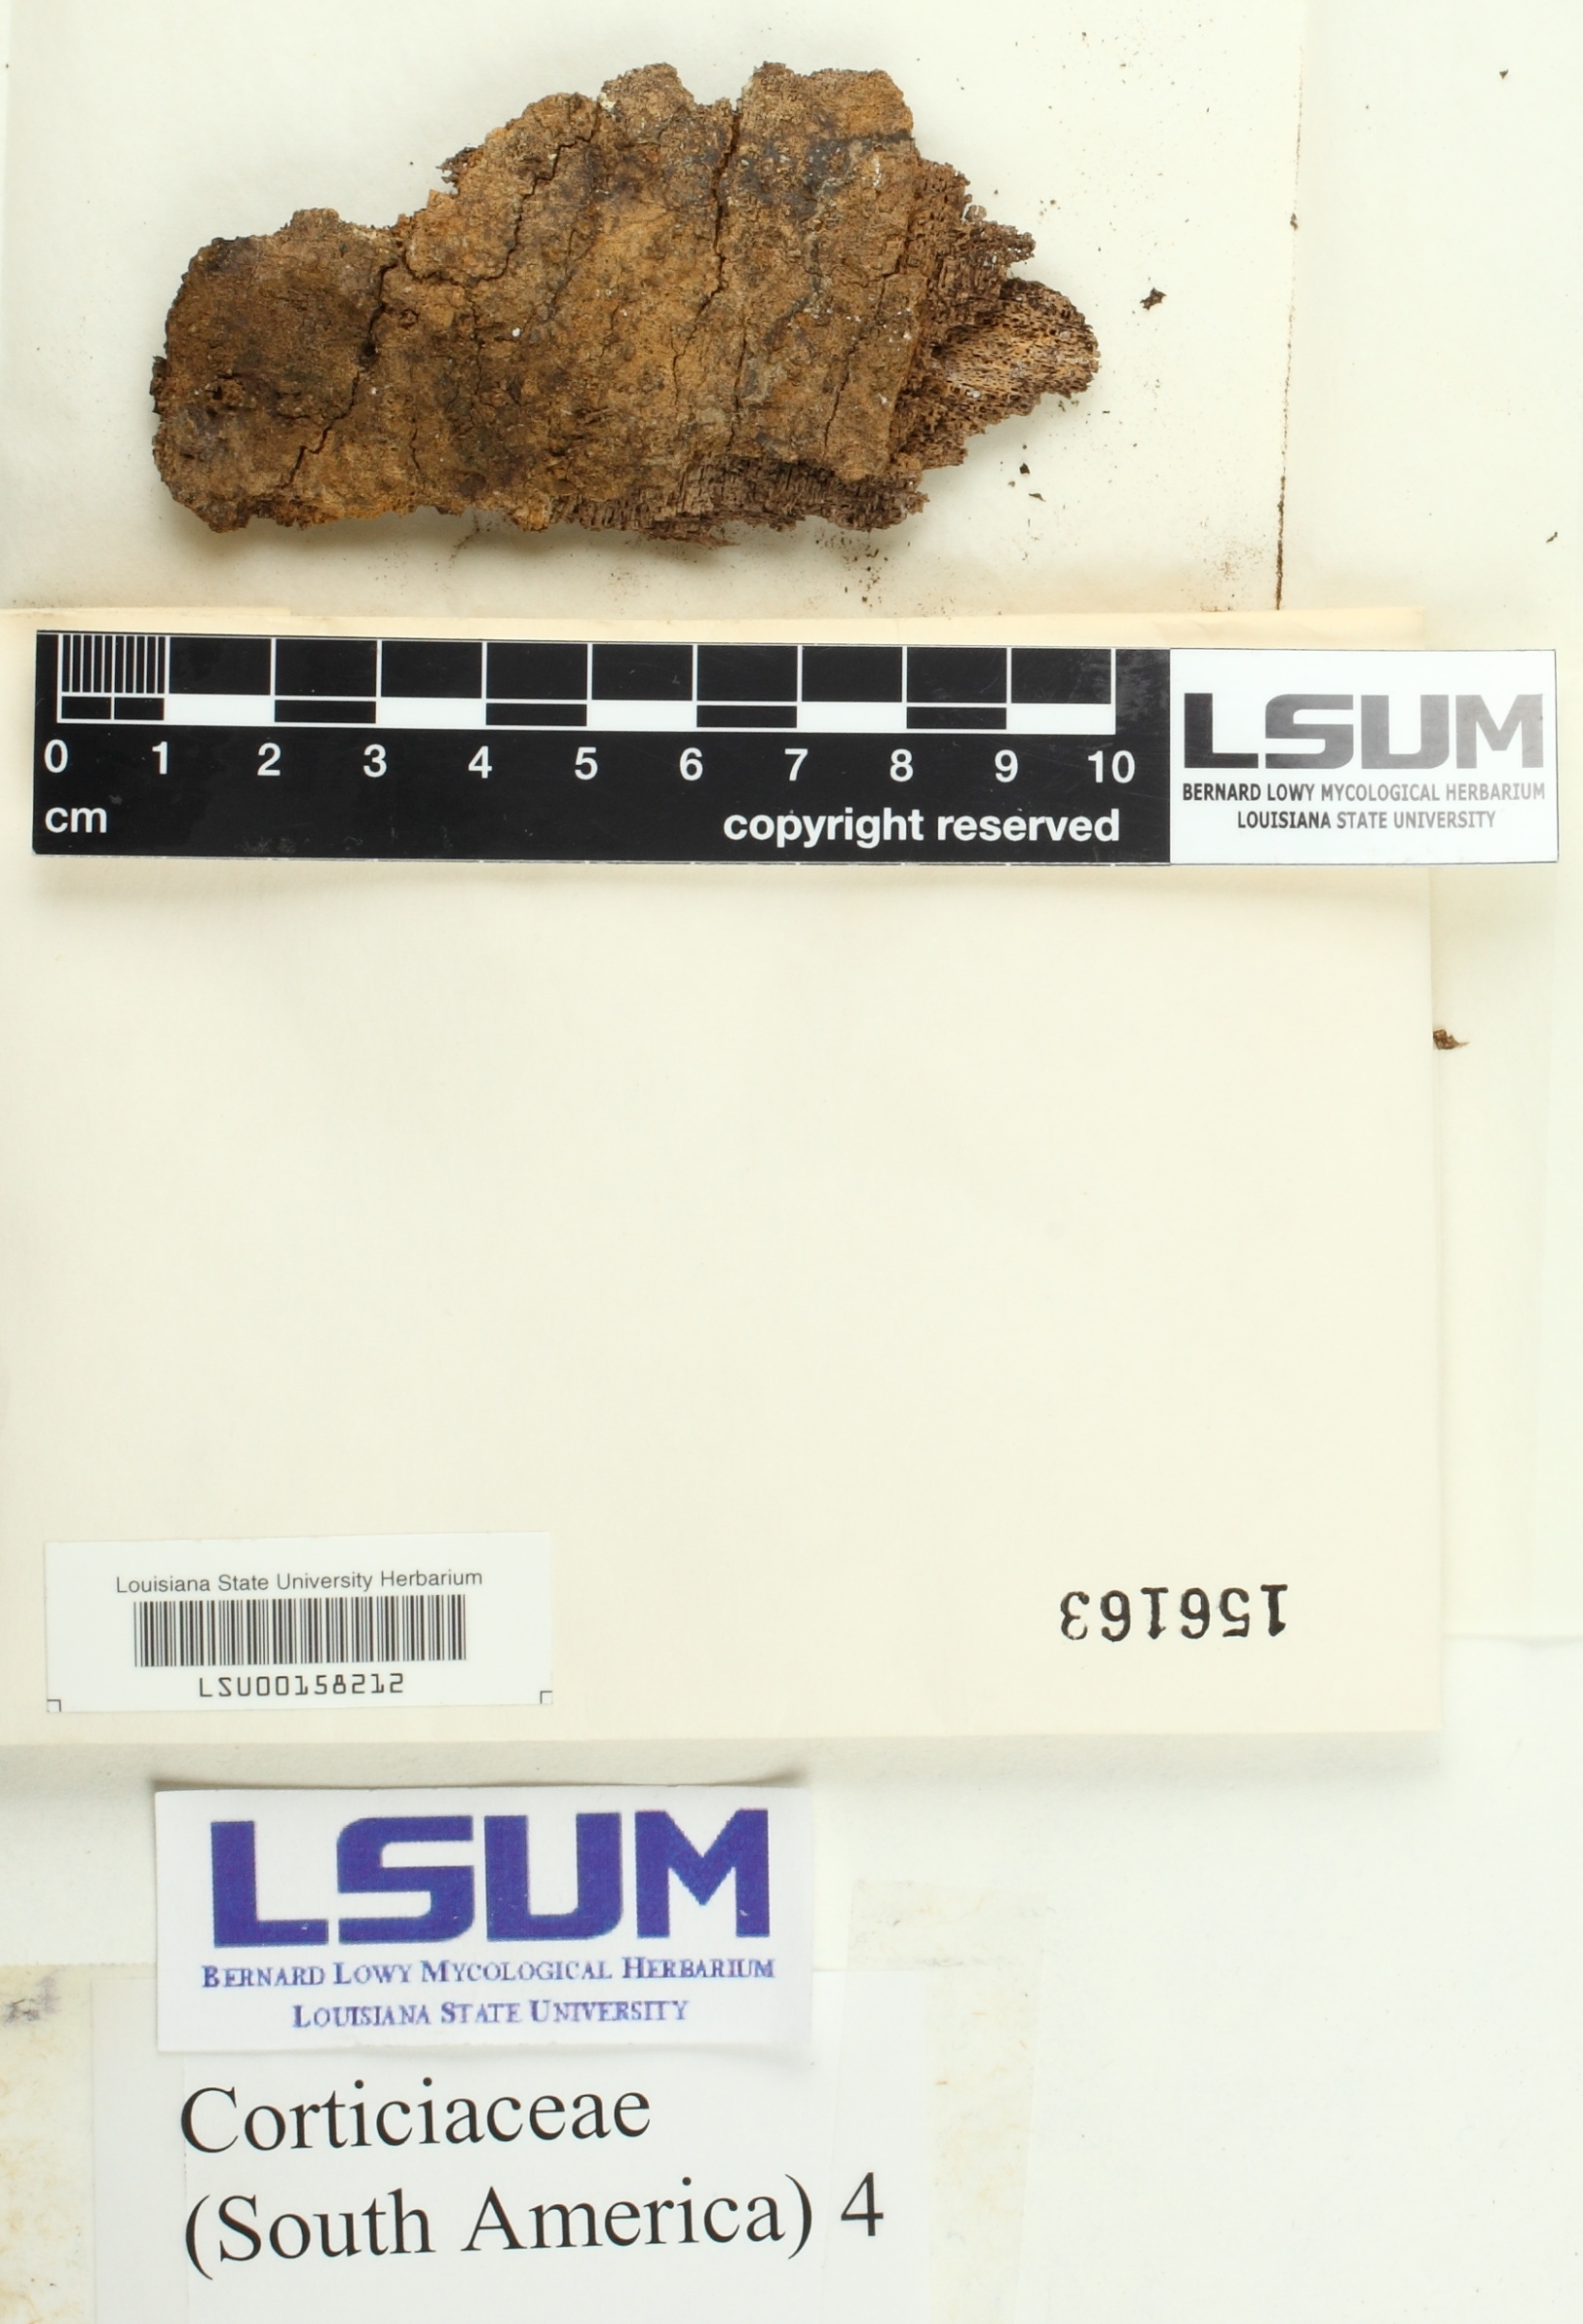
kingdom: Fungi
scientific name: Fungi
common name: Fungi
